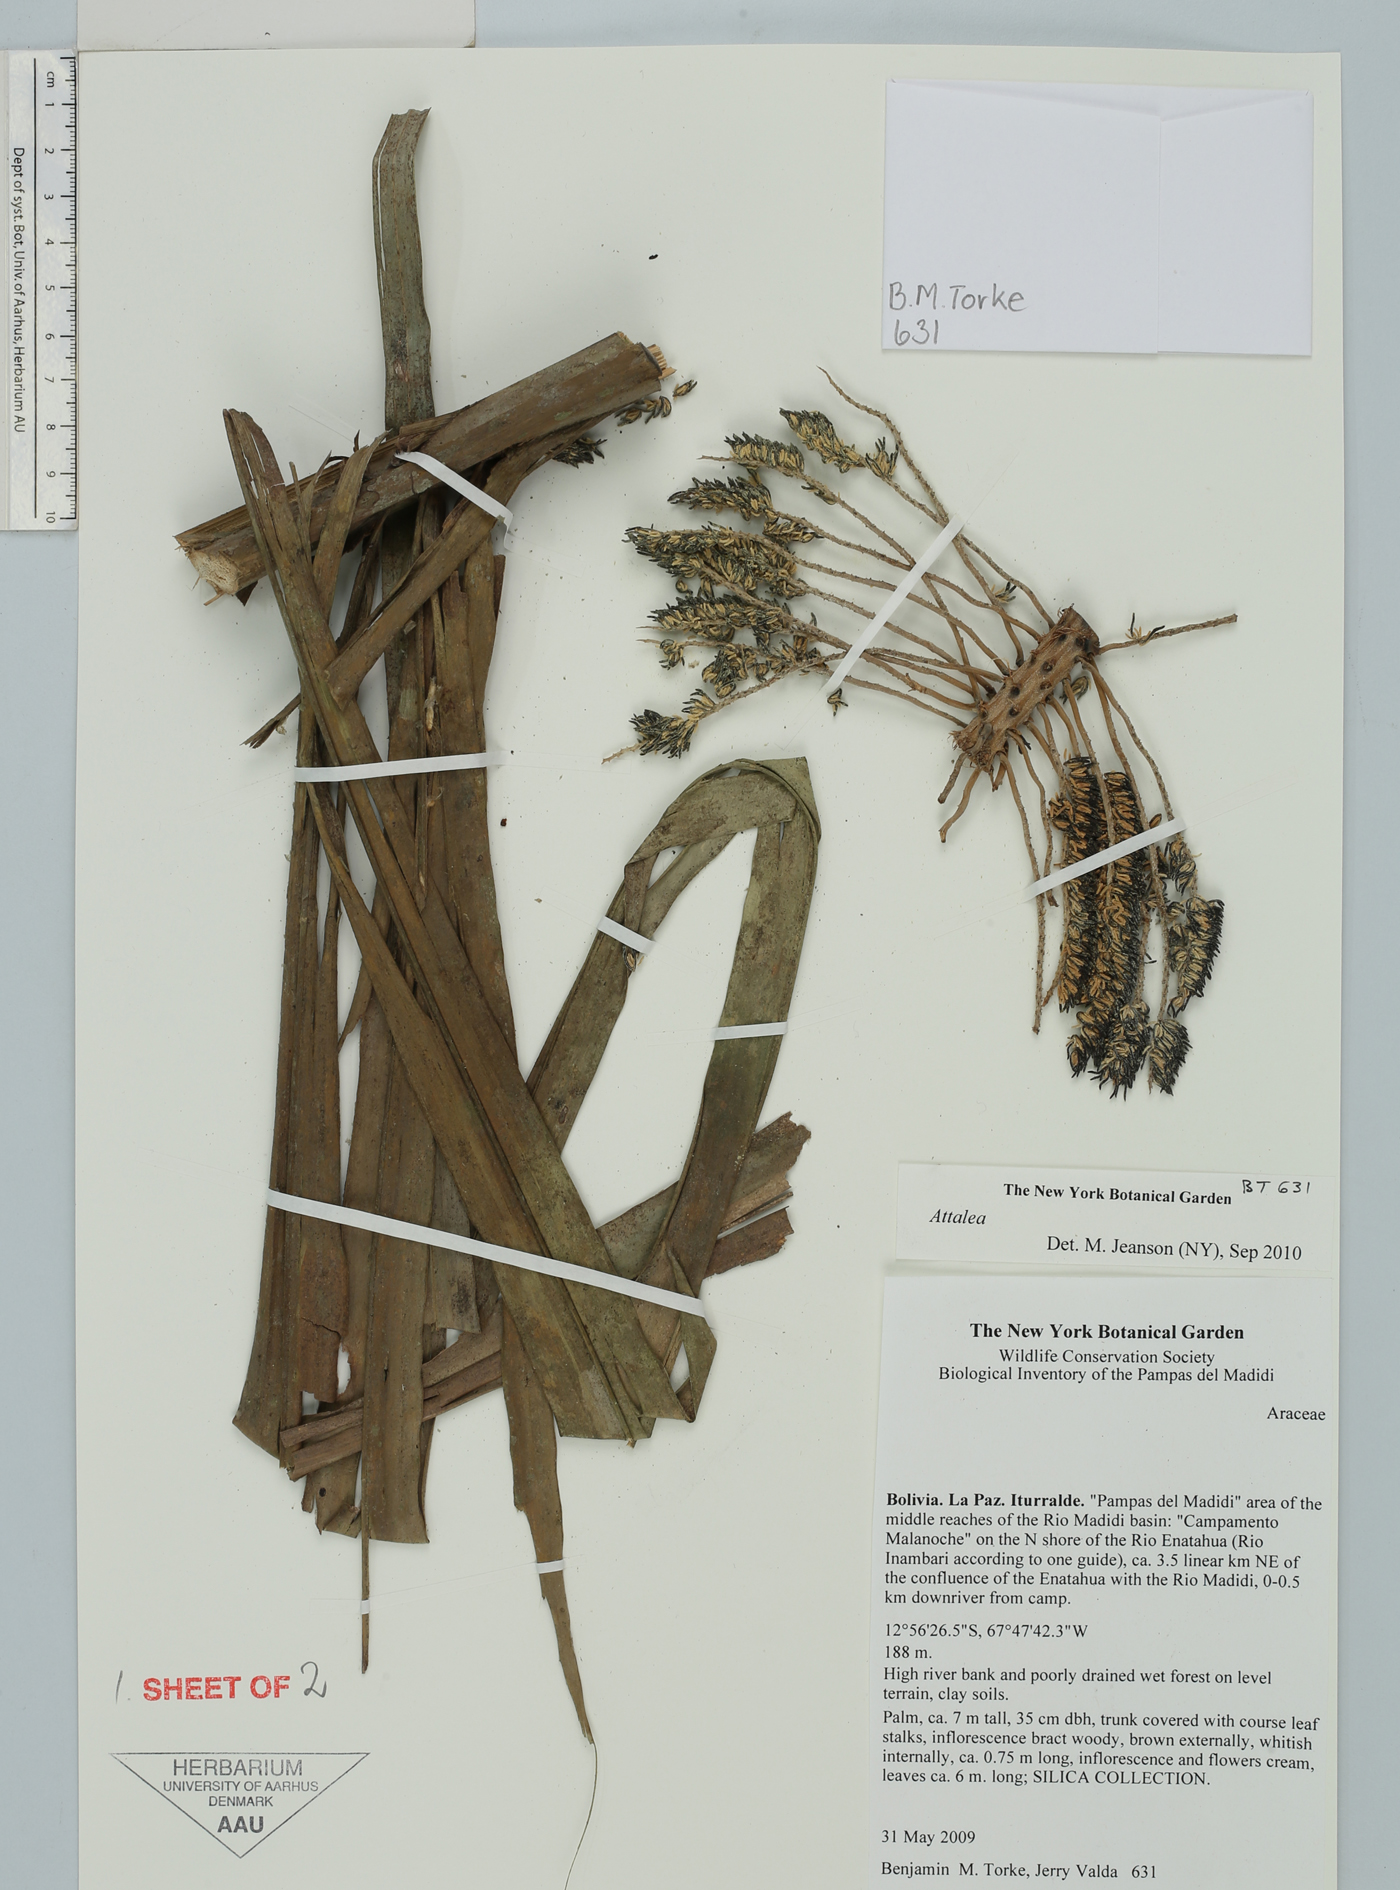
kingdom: Plantae
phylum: Tracheophyta
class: Liliopsida
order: Arecales
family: Arecaceae
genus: Attalea
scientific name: Attalea
